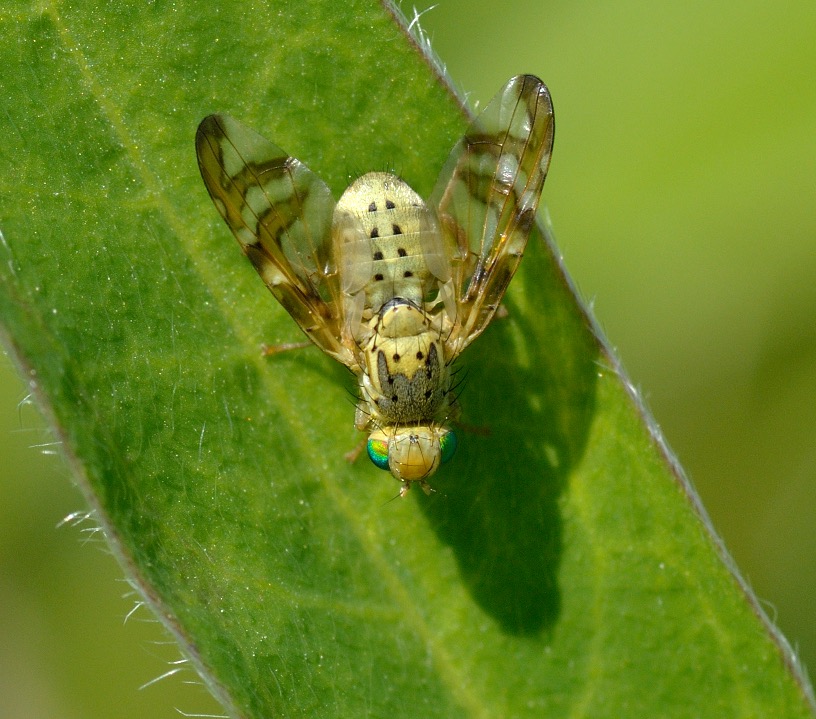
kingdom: Animalia
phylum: Arthropoda
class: Insecta
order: Diptera
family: Tephritidae
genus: Orellia
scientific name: Orellia falcata
